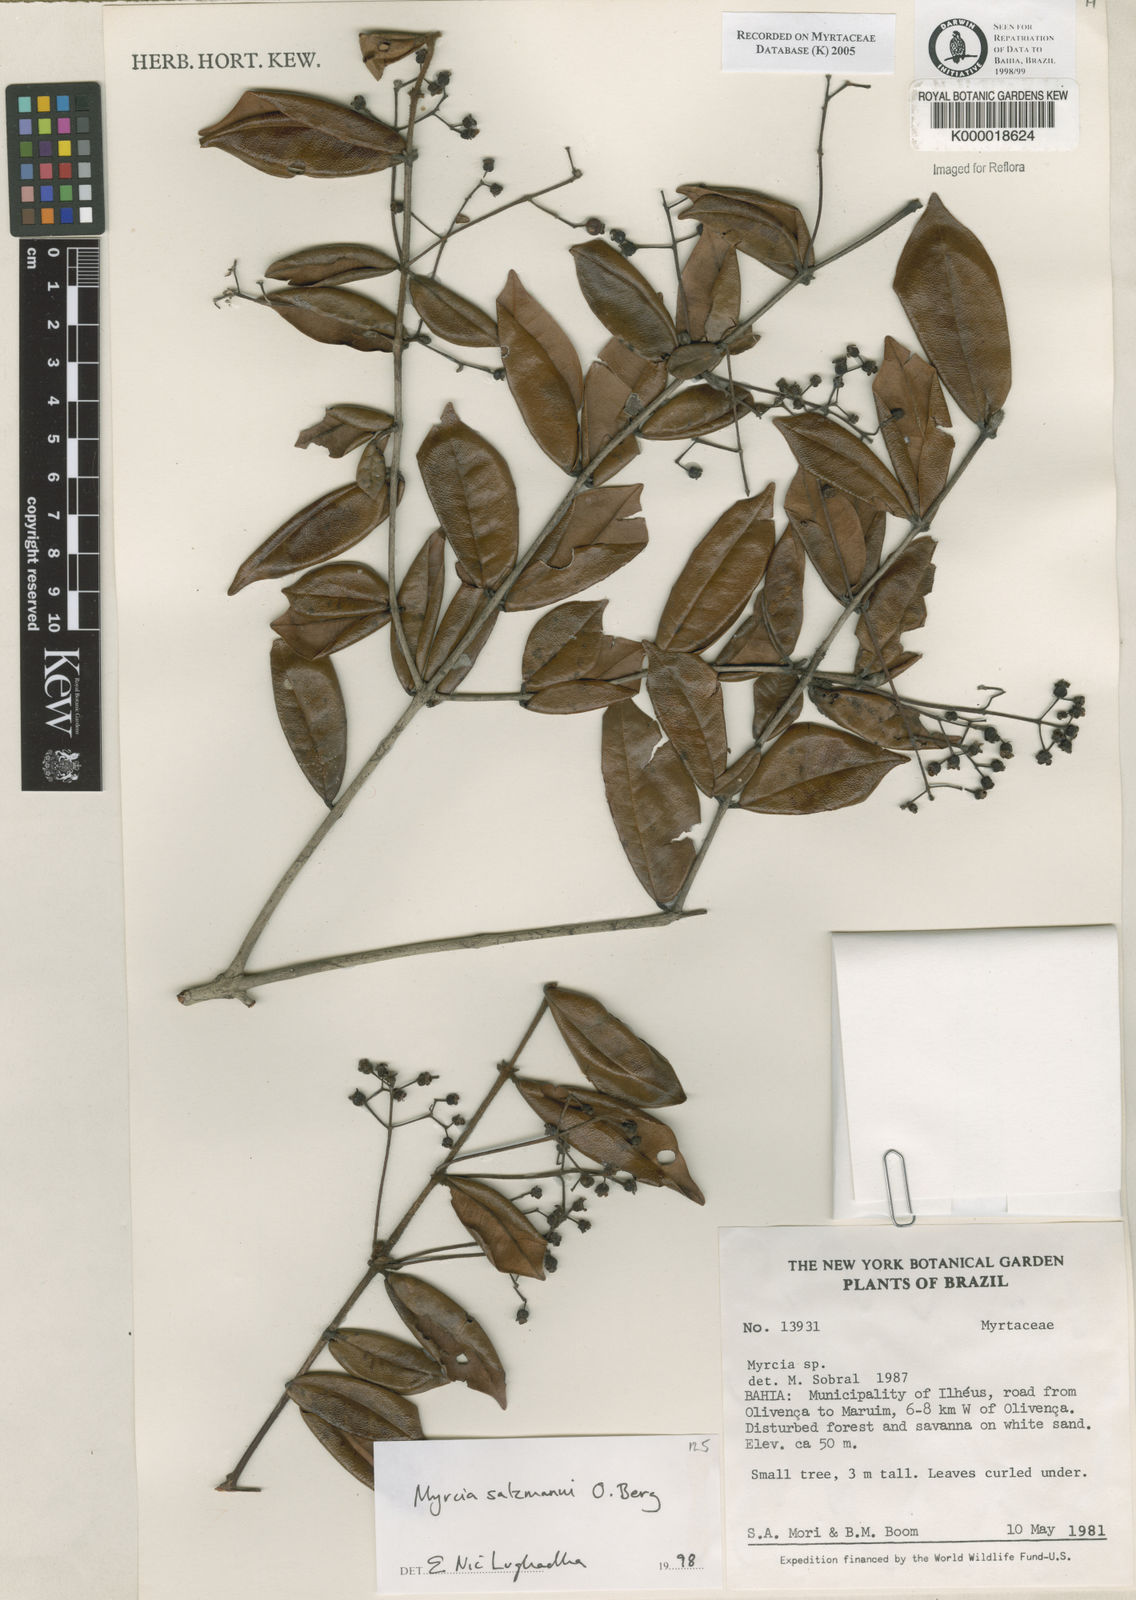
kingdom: Plantae
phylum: Tracheophyta
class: Magnoliopsida
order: Myrtales
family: Myrtaceae
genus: Myrcia
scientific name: Myrcia salzmannii
